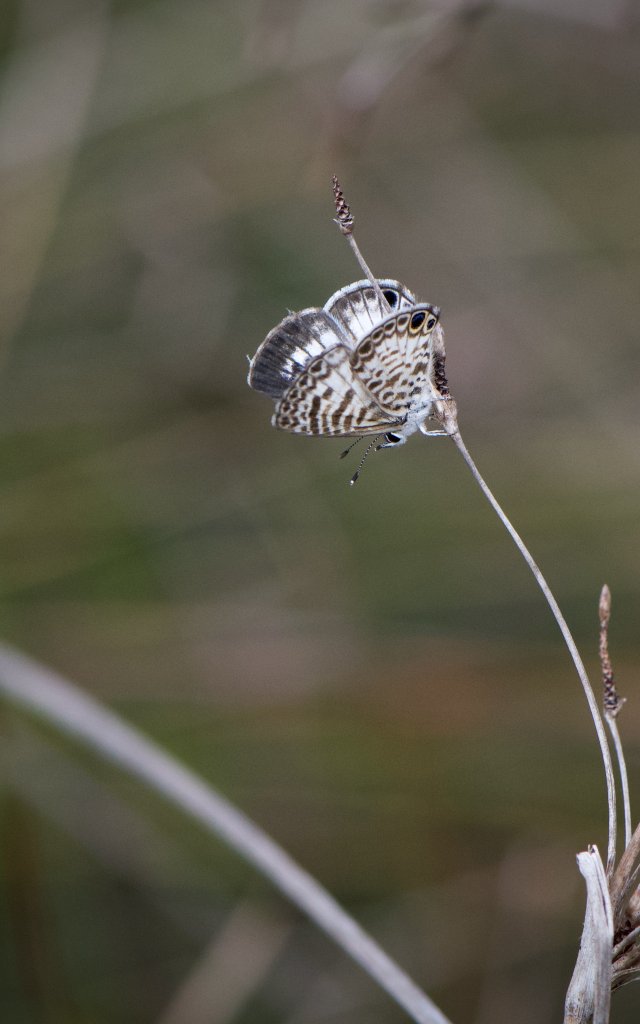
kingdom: Animalia
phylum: Arthropoda
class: Insecta
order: Lepidoptera
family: Lycaenidae
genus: Leptotes
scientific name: Leptotes cassius
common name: Cassius Blue
